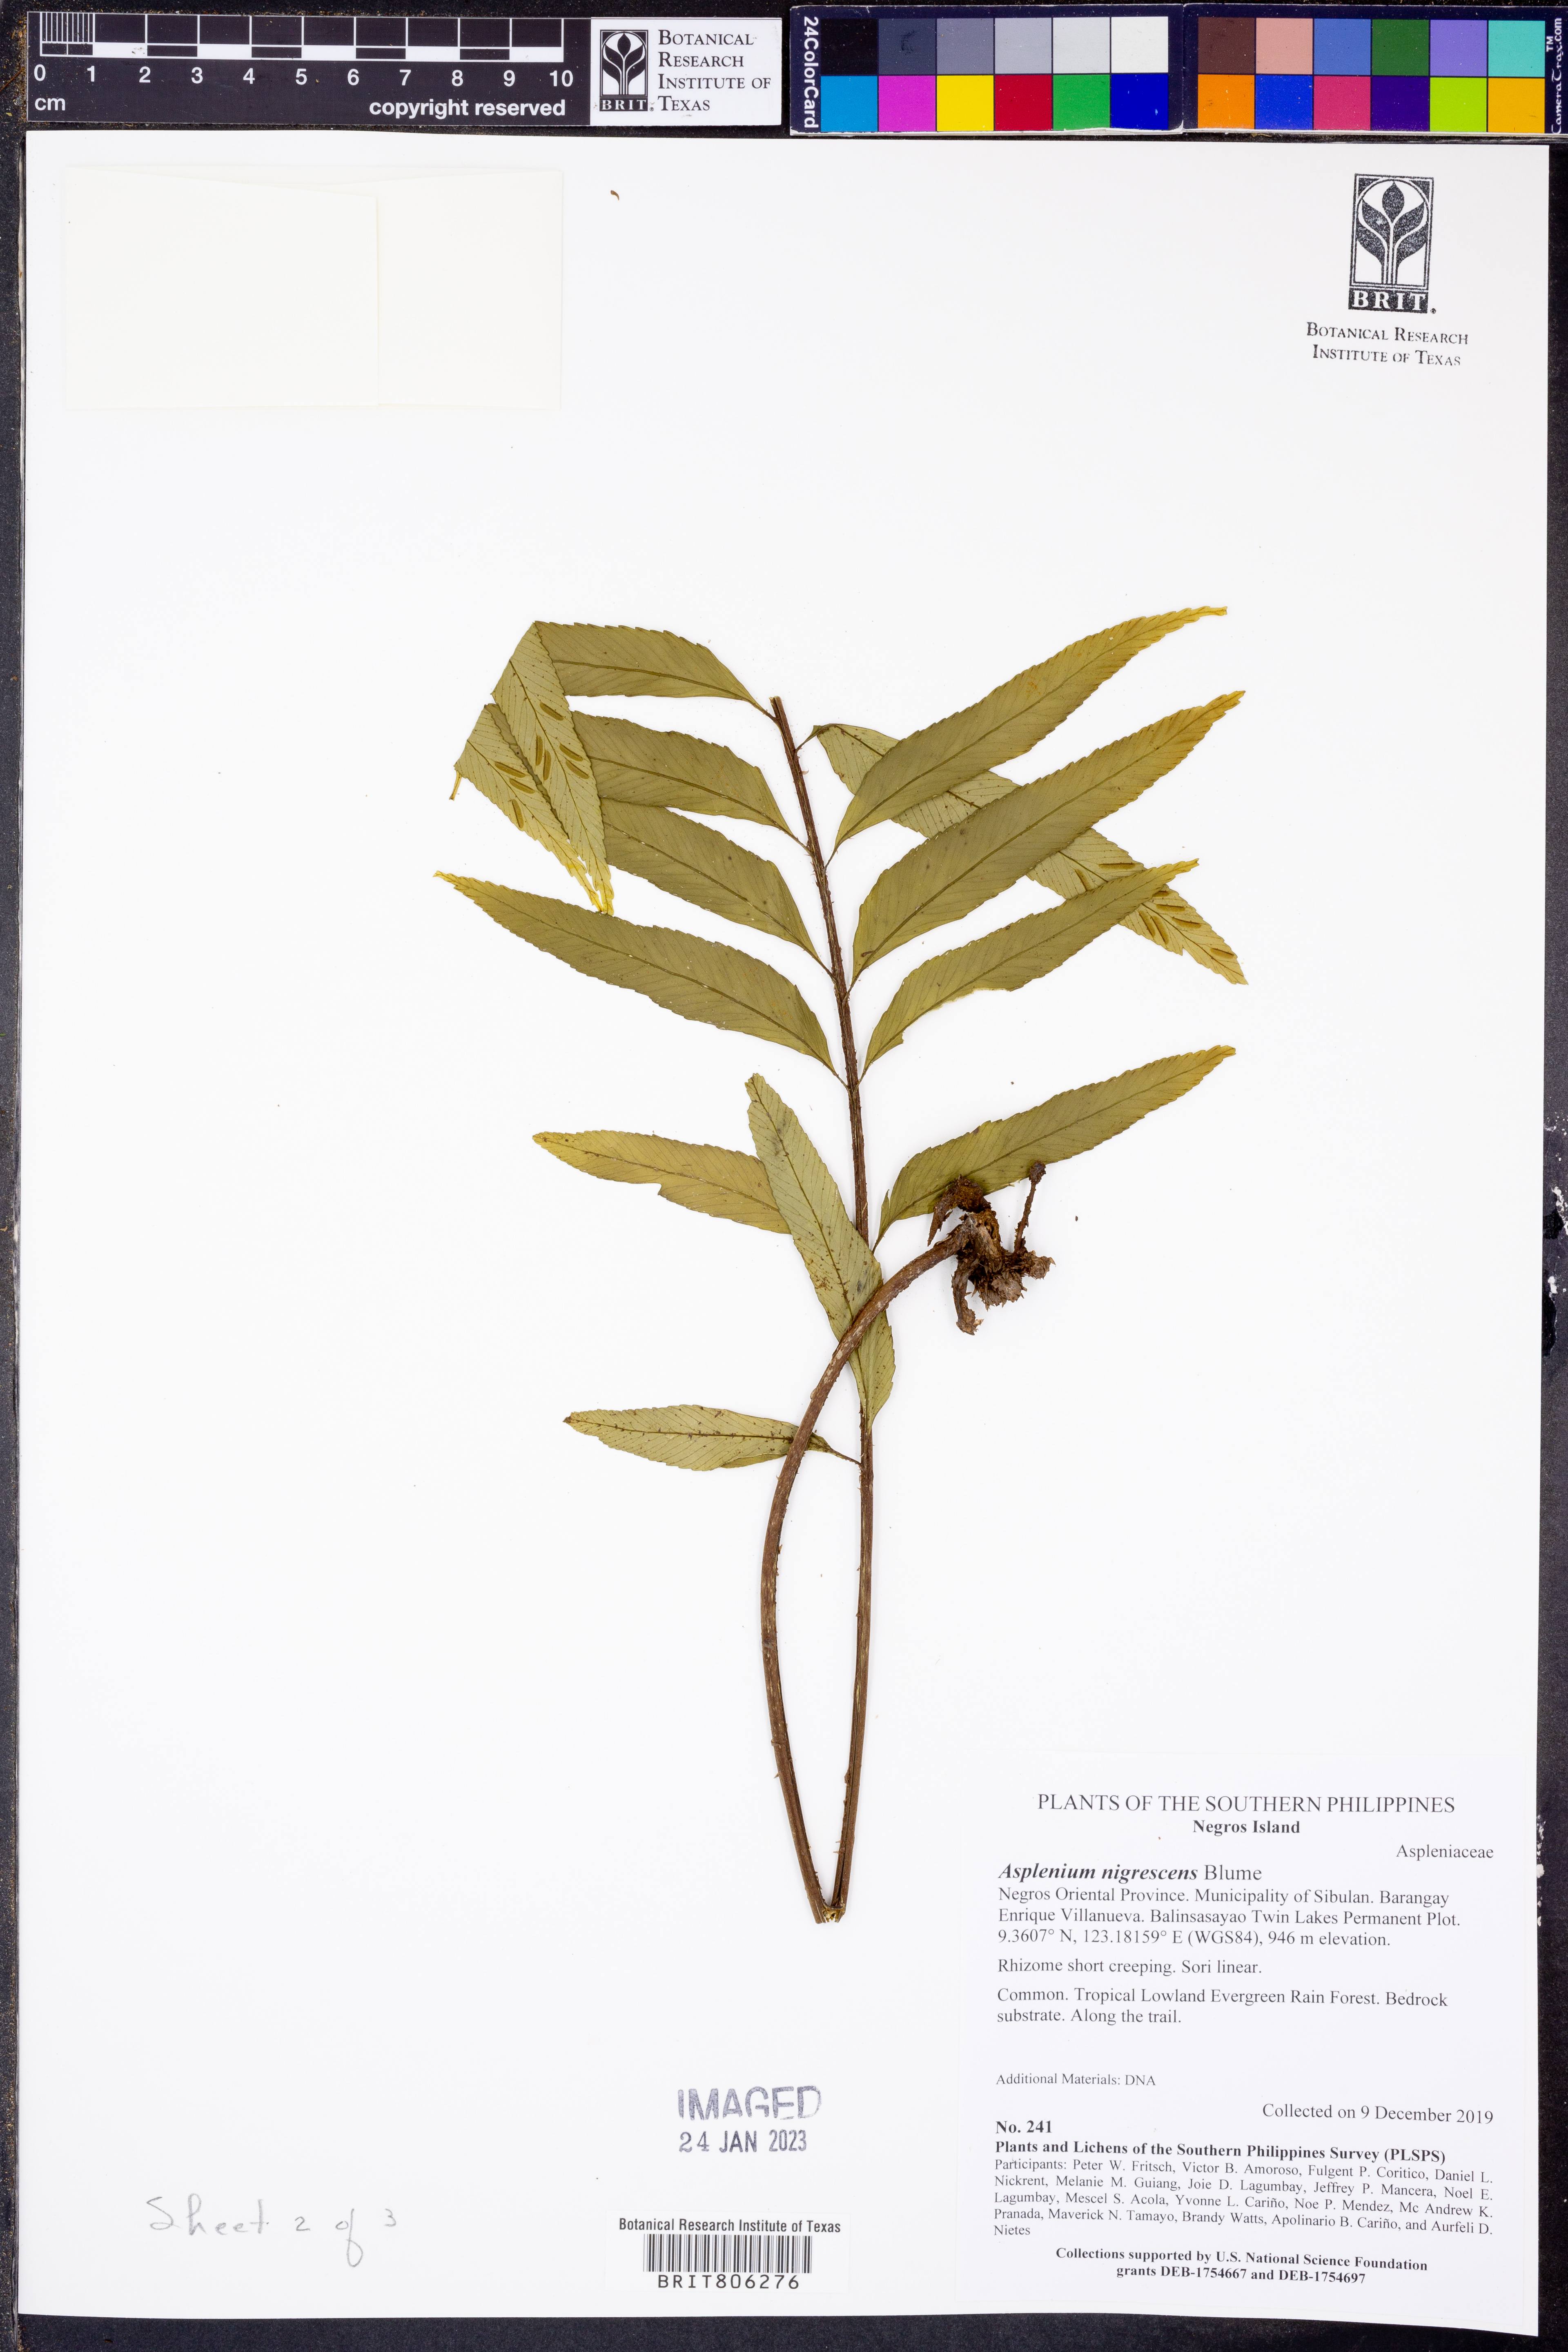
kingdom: Plantae
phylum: Tracheophyta
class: Polypodiopsida
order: Polypodiales
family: Aspleniaceae
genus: Asplenium
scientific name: Asplenium nigrescens
